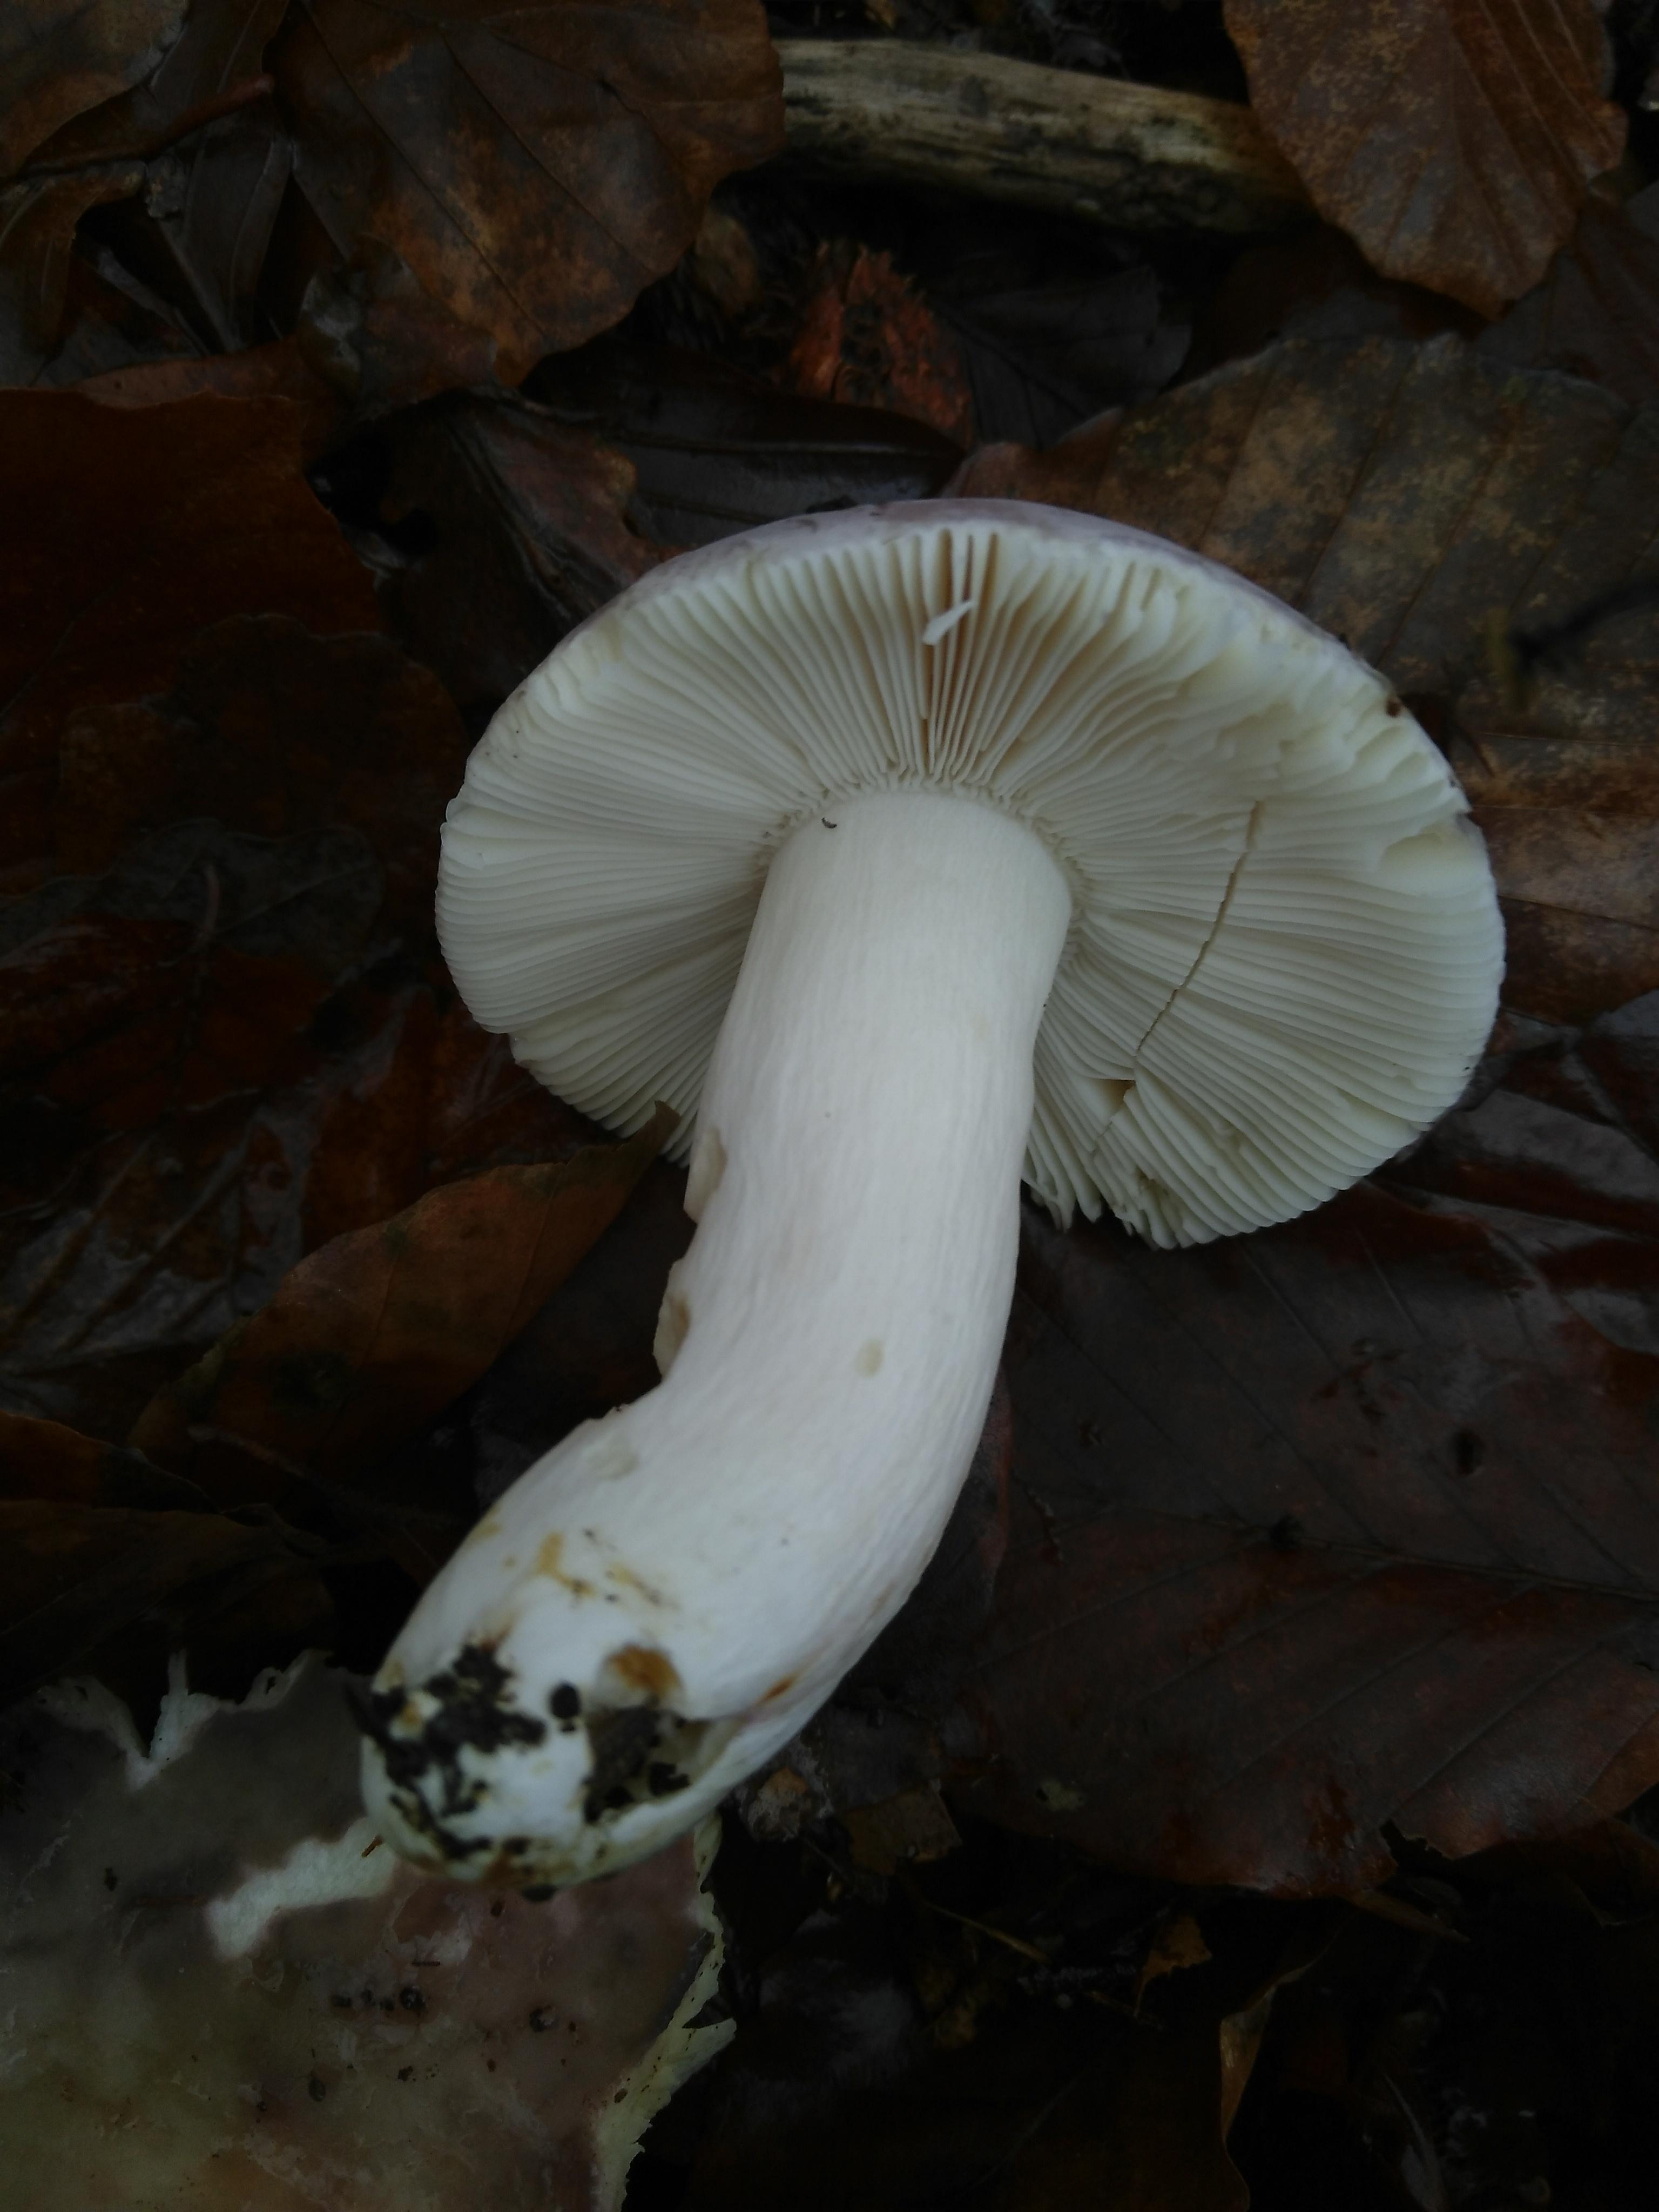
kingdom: Fungi
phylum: Basidiomycota
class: Agaricomycetes
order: Russulales
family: Russulaceae
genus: Russula
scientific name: Russula cyanoxantha
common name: broget skørhat
